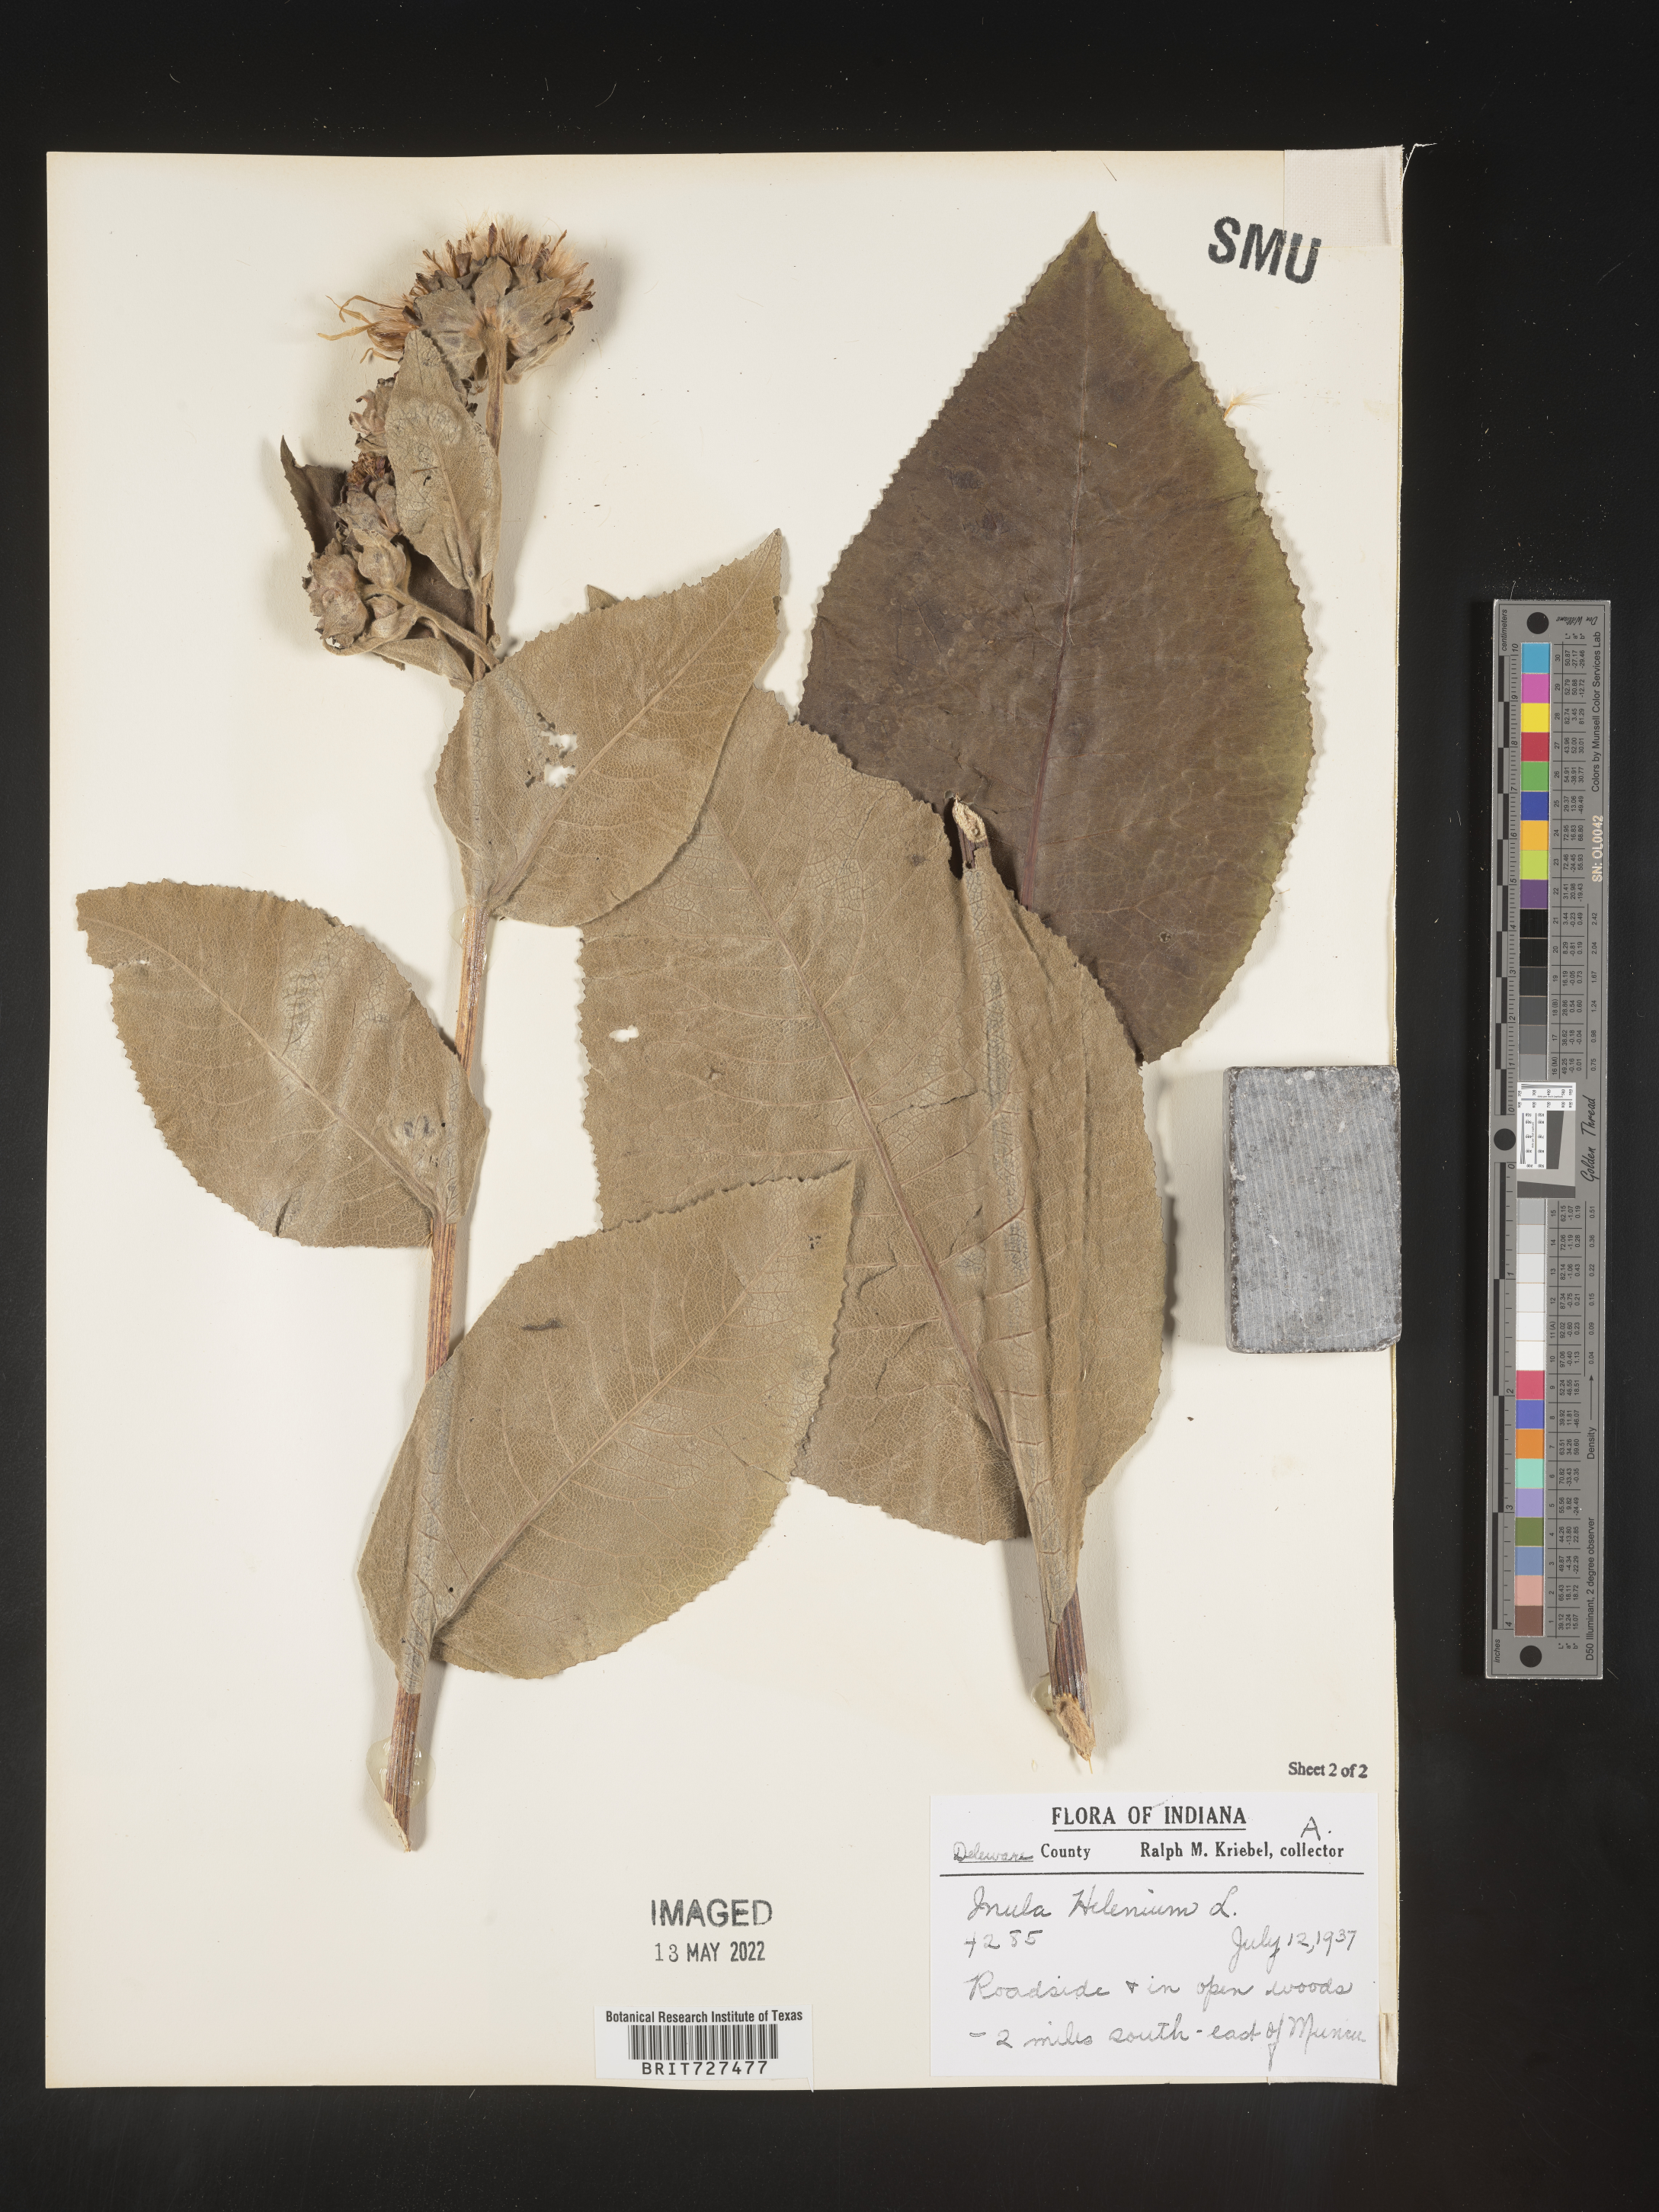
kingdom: Plantae
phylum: Tracheophyta
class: Magnoliopsida
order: Asterales
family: Asteraceae
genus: Inula
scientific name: Inula helenium
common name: Elecampane
